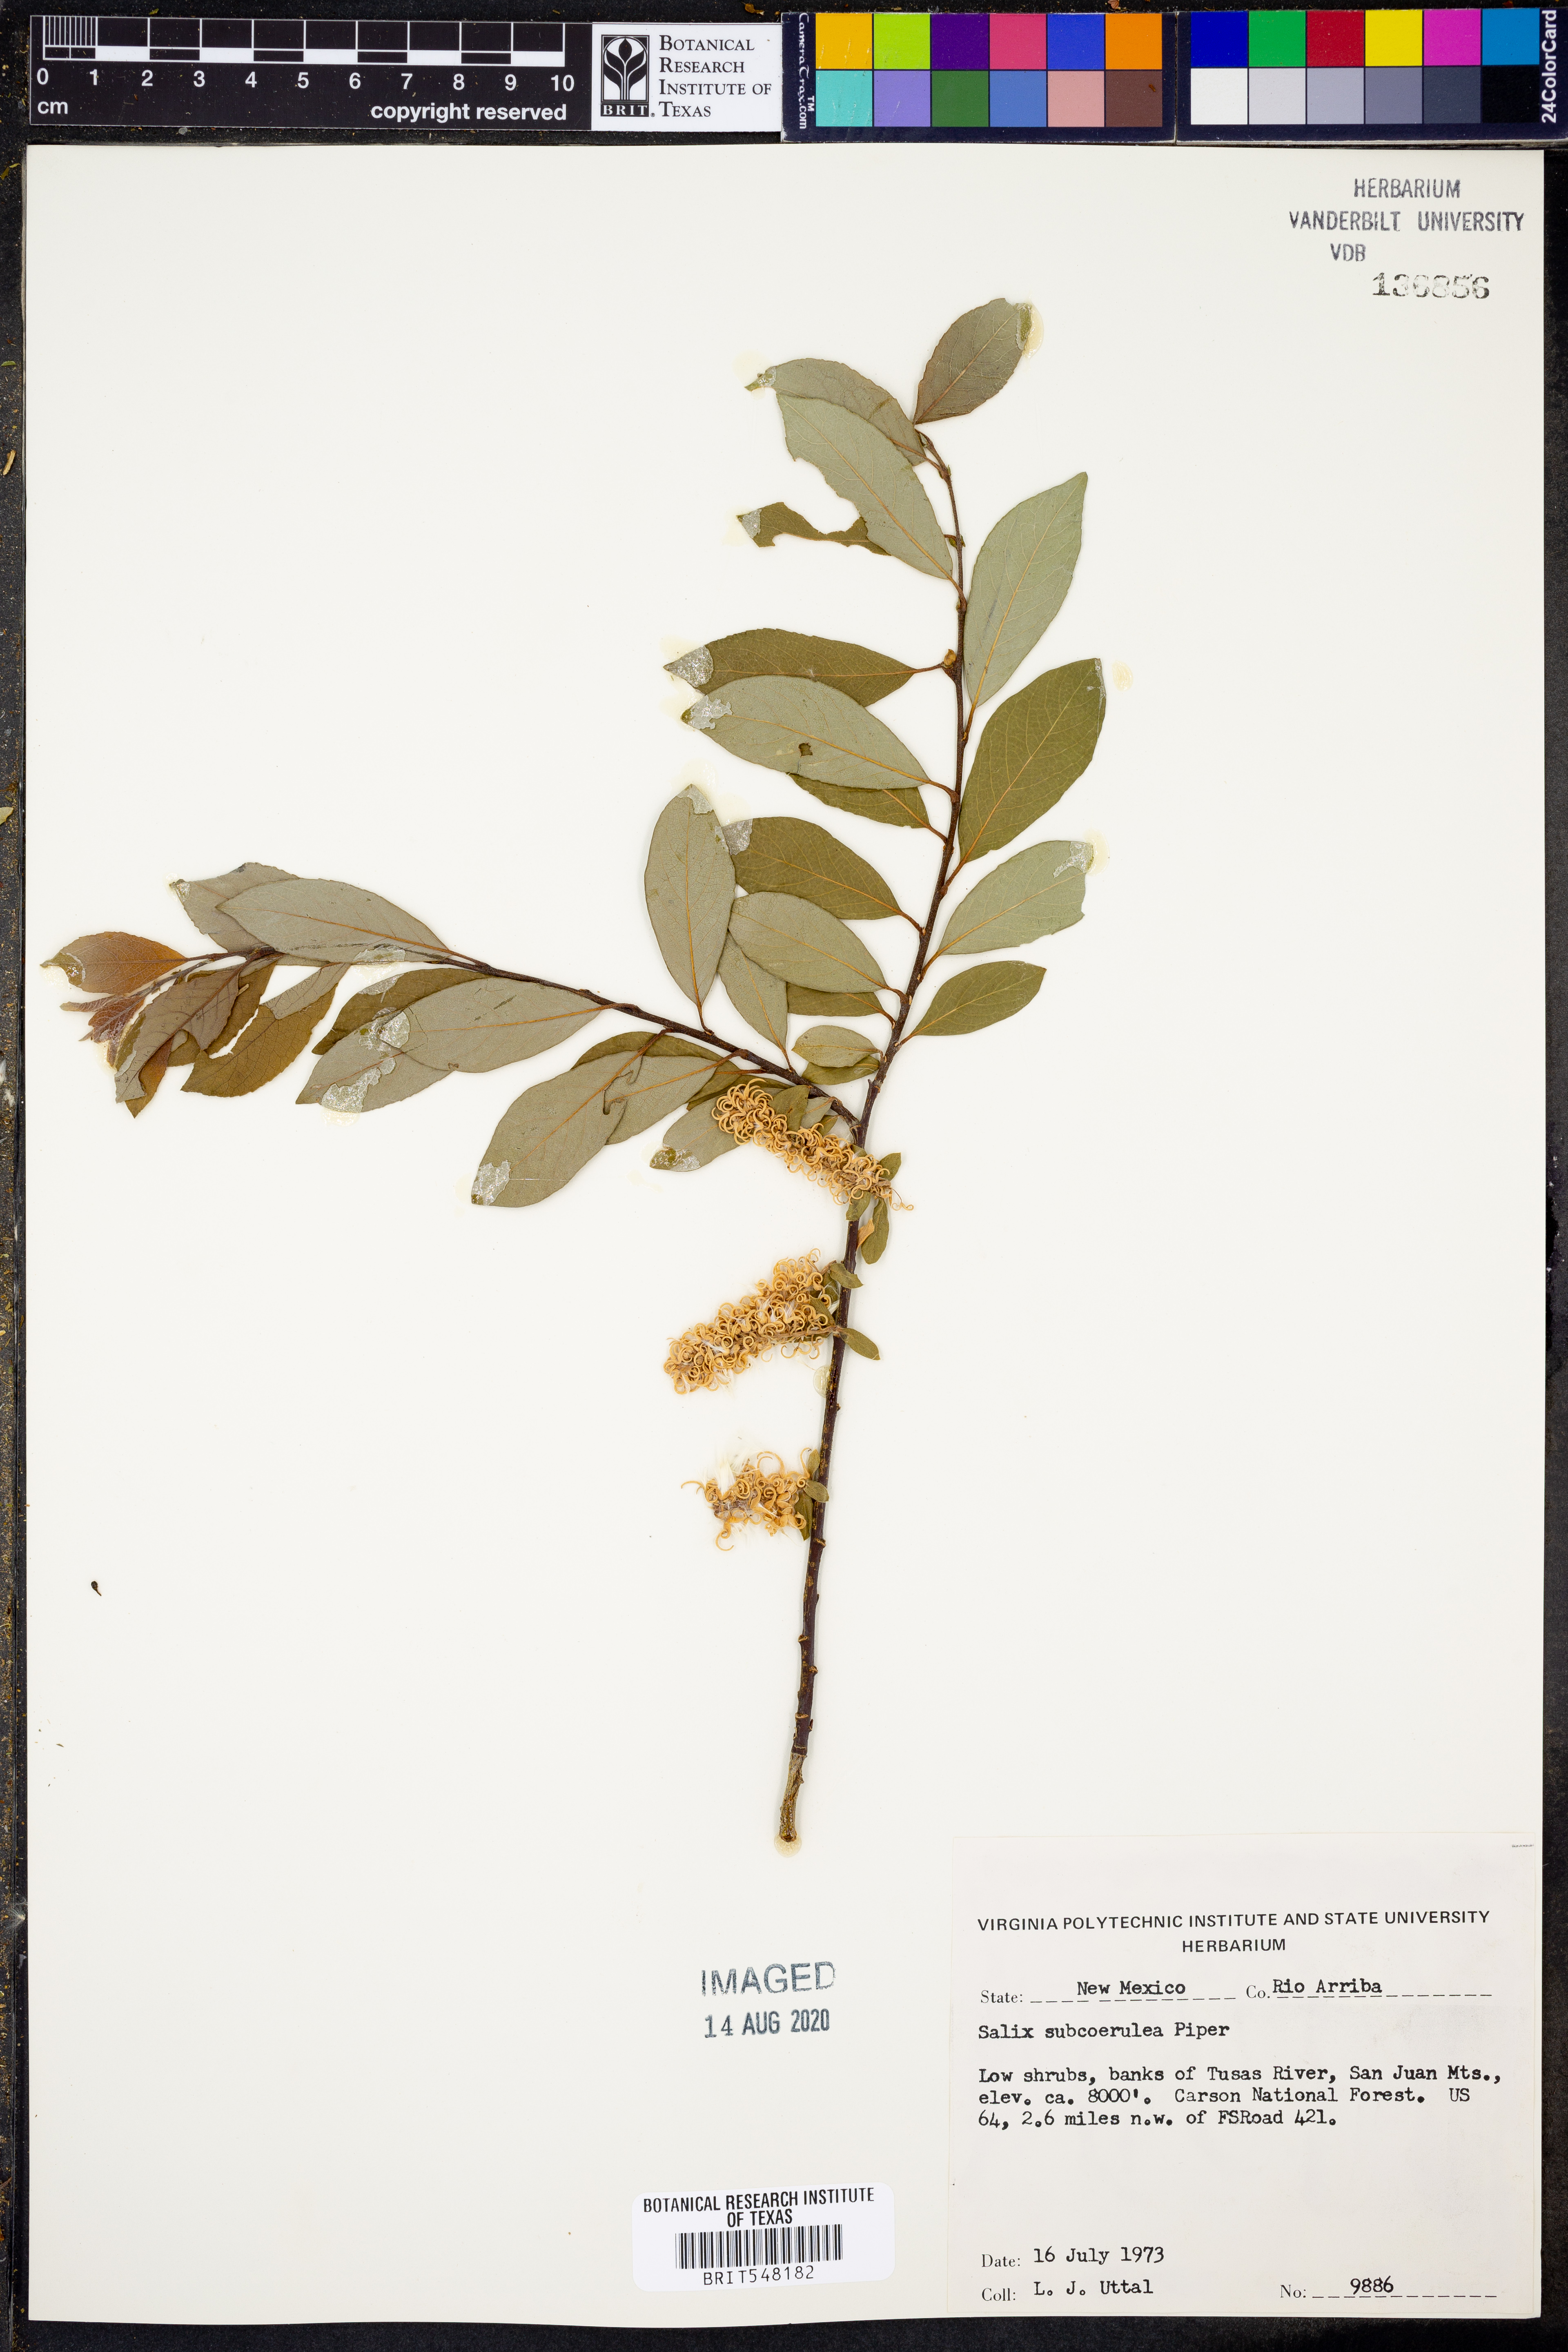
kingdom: Plantae
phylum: Tracheophyta
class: Magnoliopsida
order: Malpighiales
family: Salicaceae
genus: Salix
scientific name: Salix drummondiana
